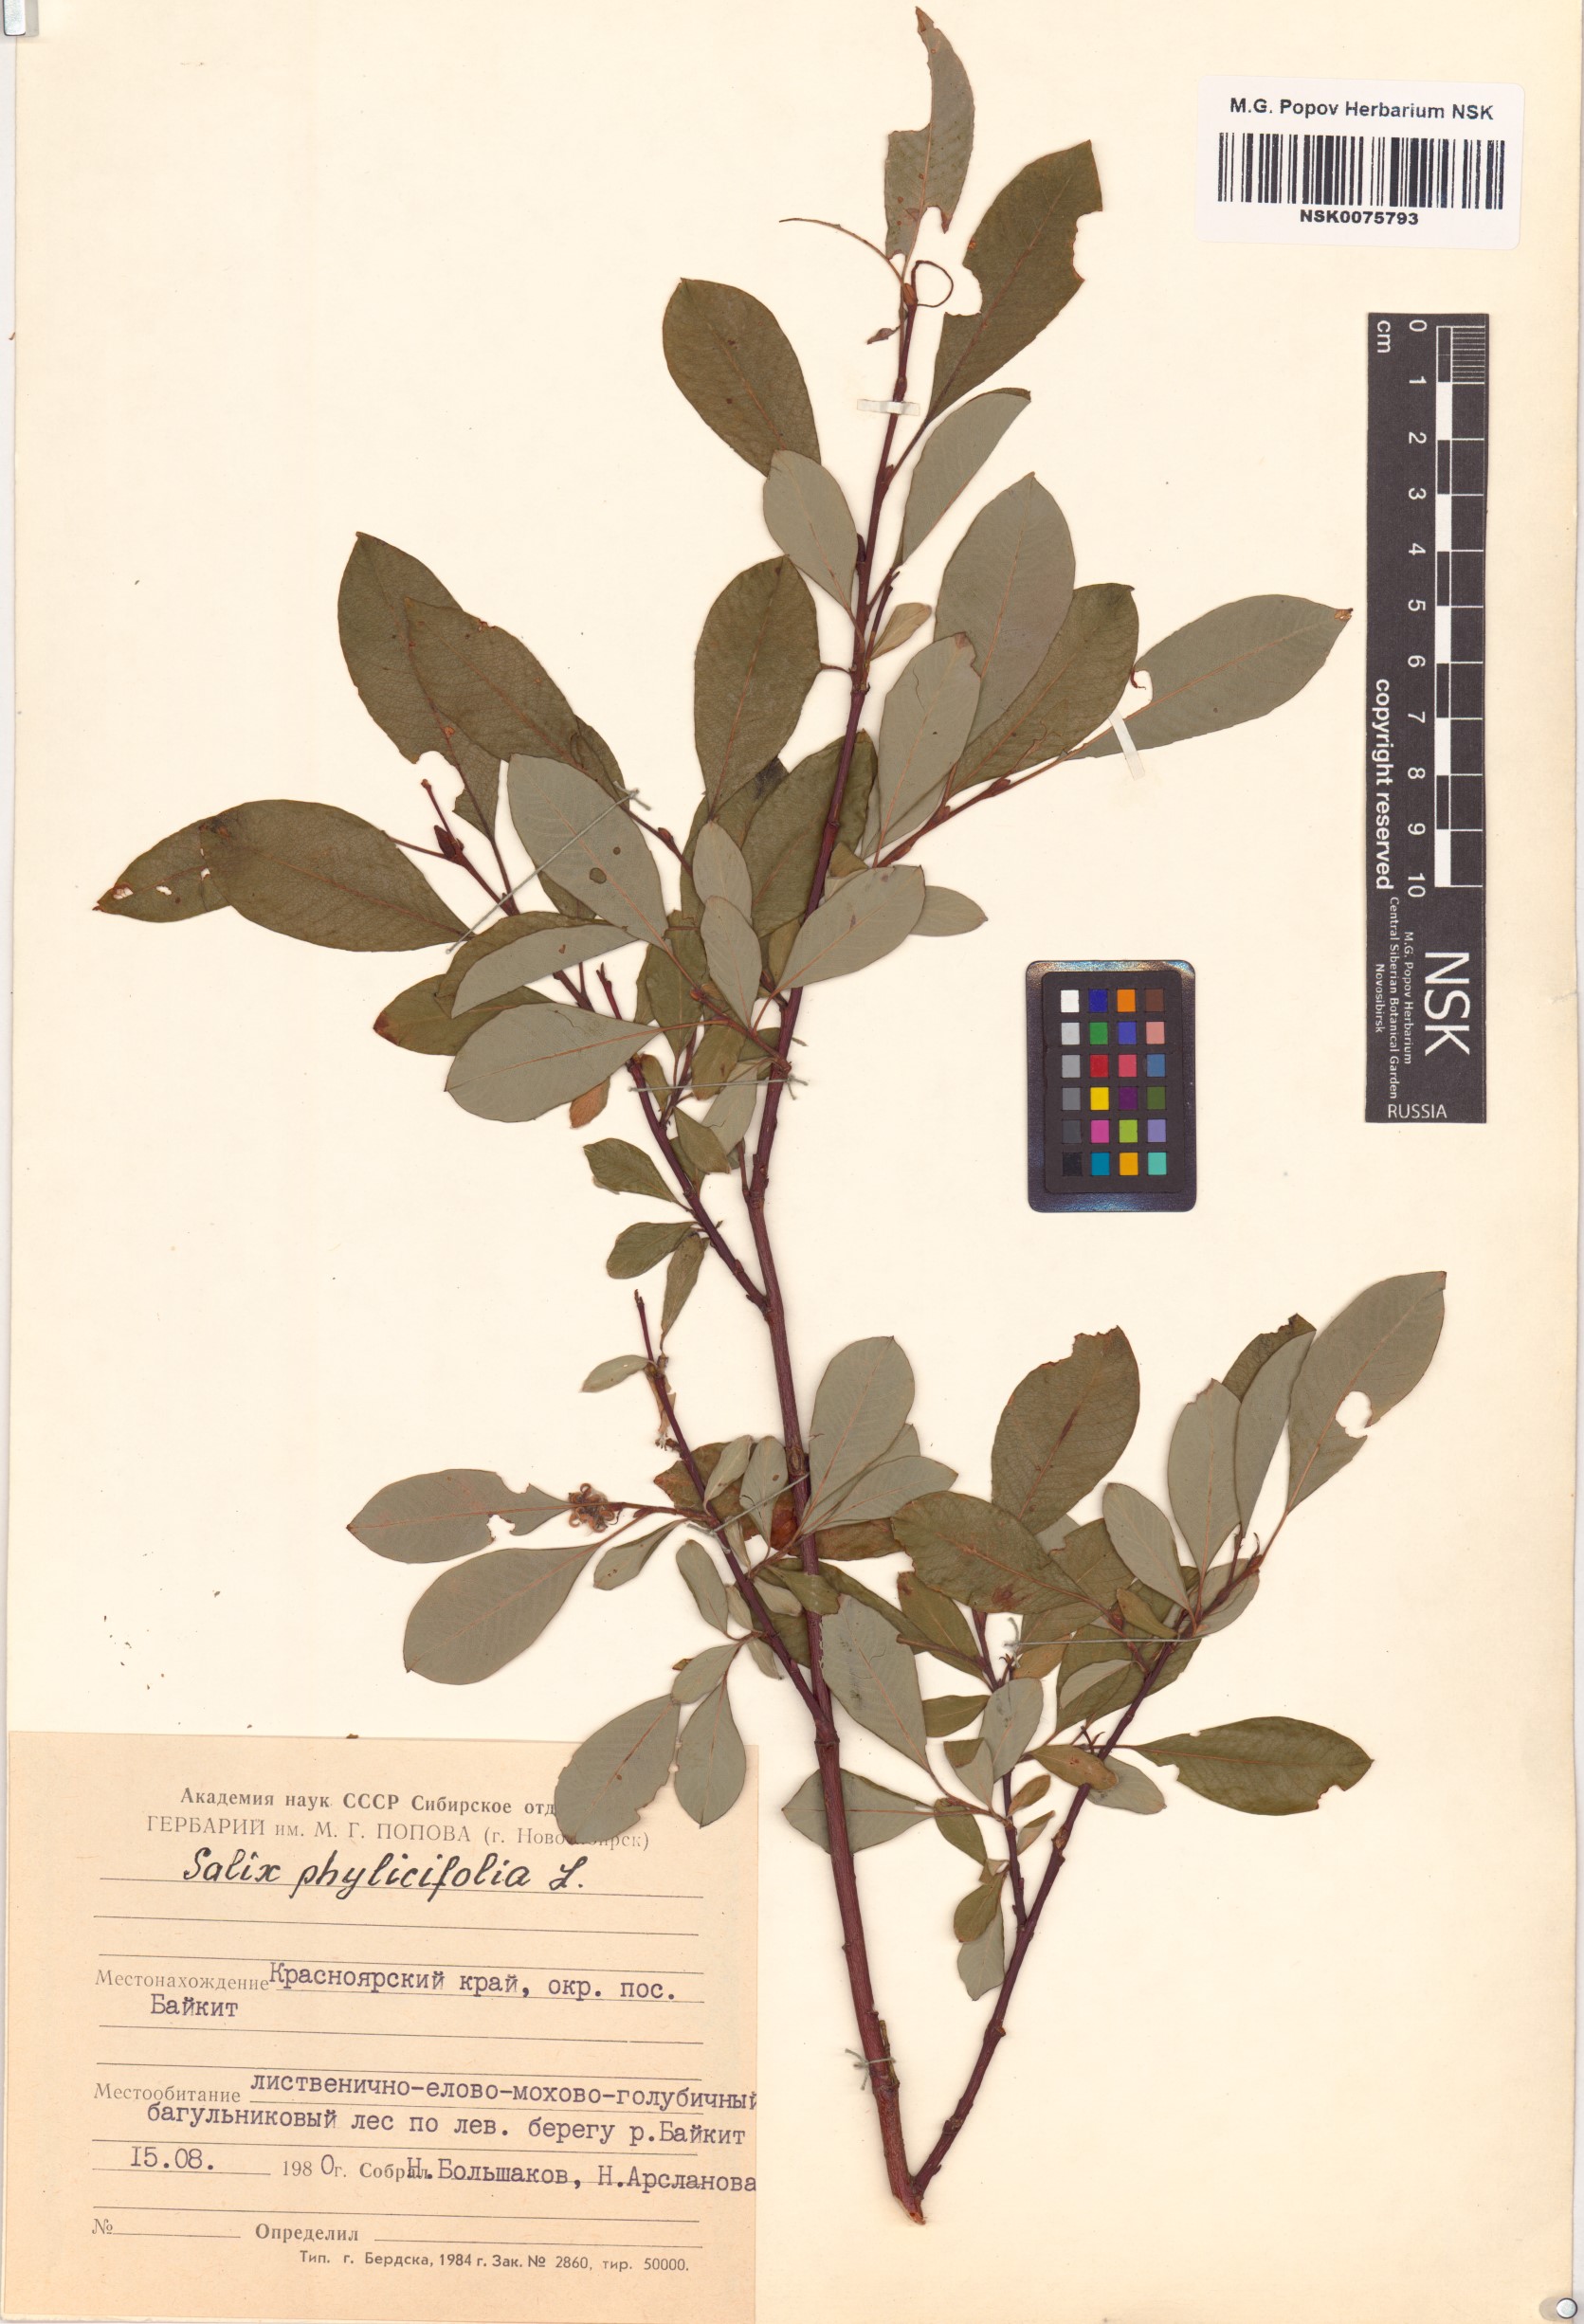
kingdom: Plantae
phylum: Tracheophyta
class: Magnoliopsida
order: Malpighiales
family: Salicaceae
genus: Salix
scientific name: Salix phylicifolia
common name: Tea-leaved willow
